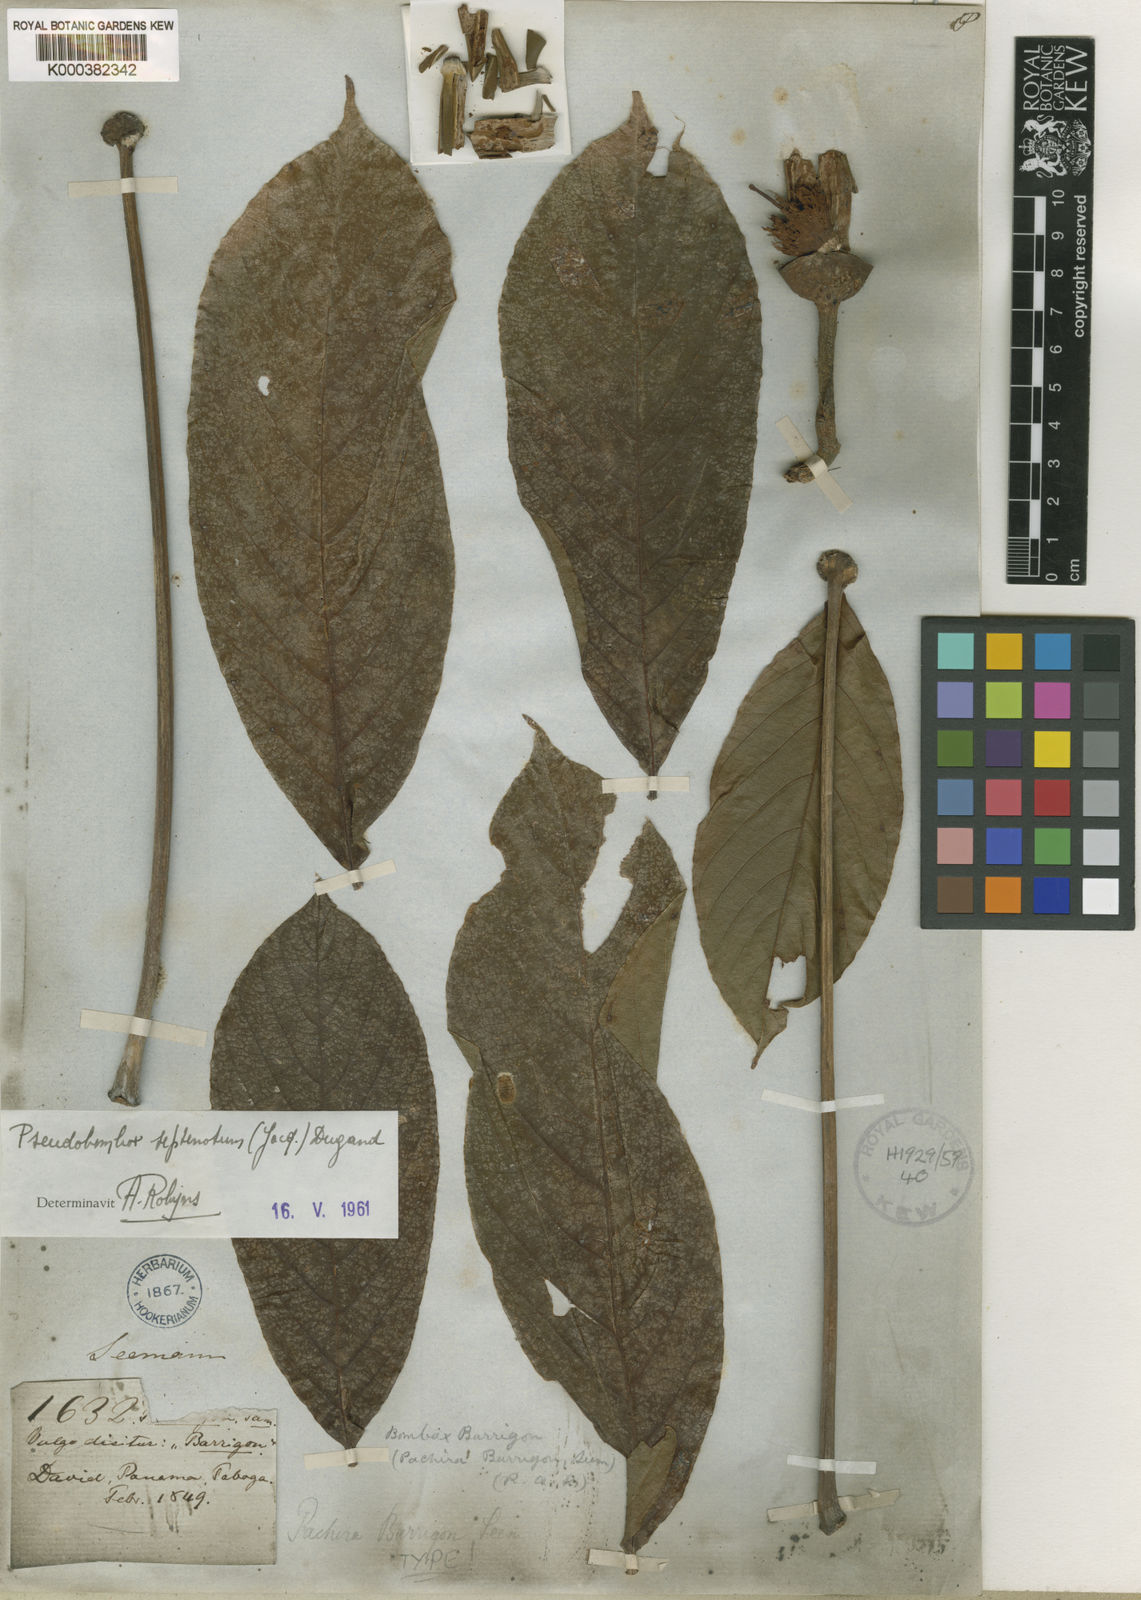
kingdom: Plantae
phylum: Tracheophyta
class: Magnoliopsida
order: Malvales
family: Malvaceae
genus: Pseudobombax
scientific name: Pseudobombax septenatum
